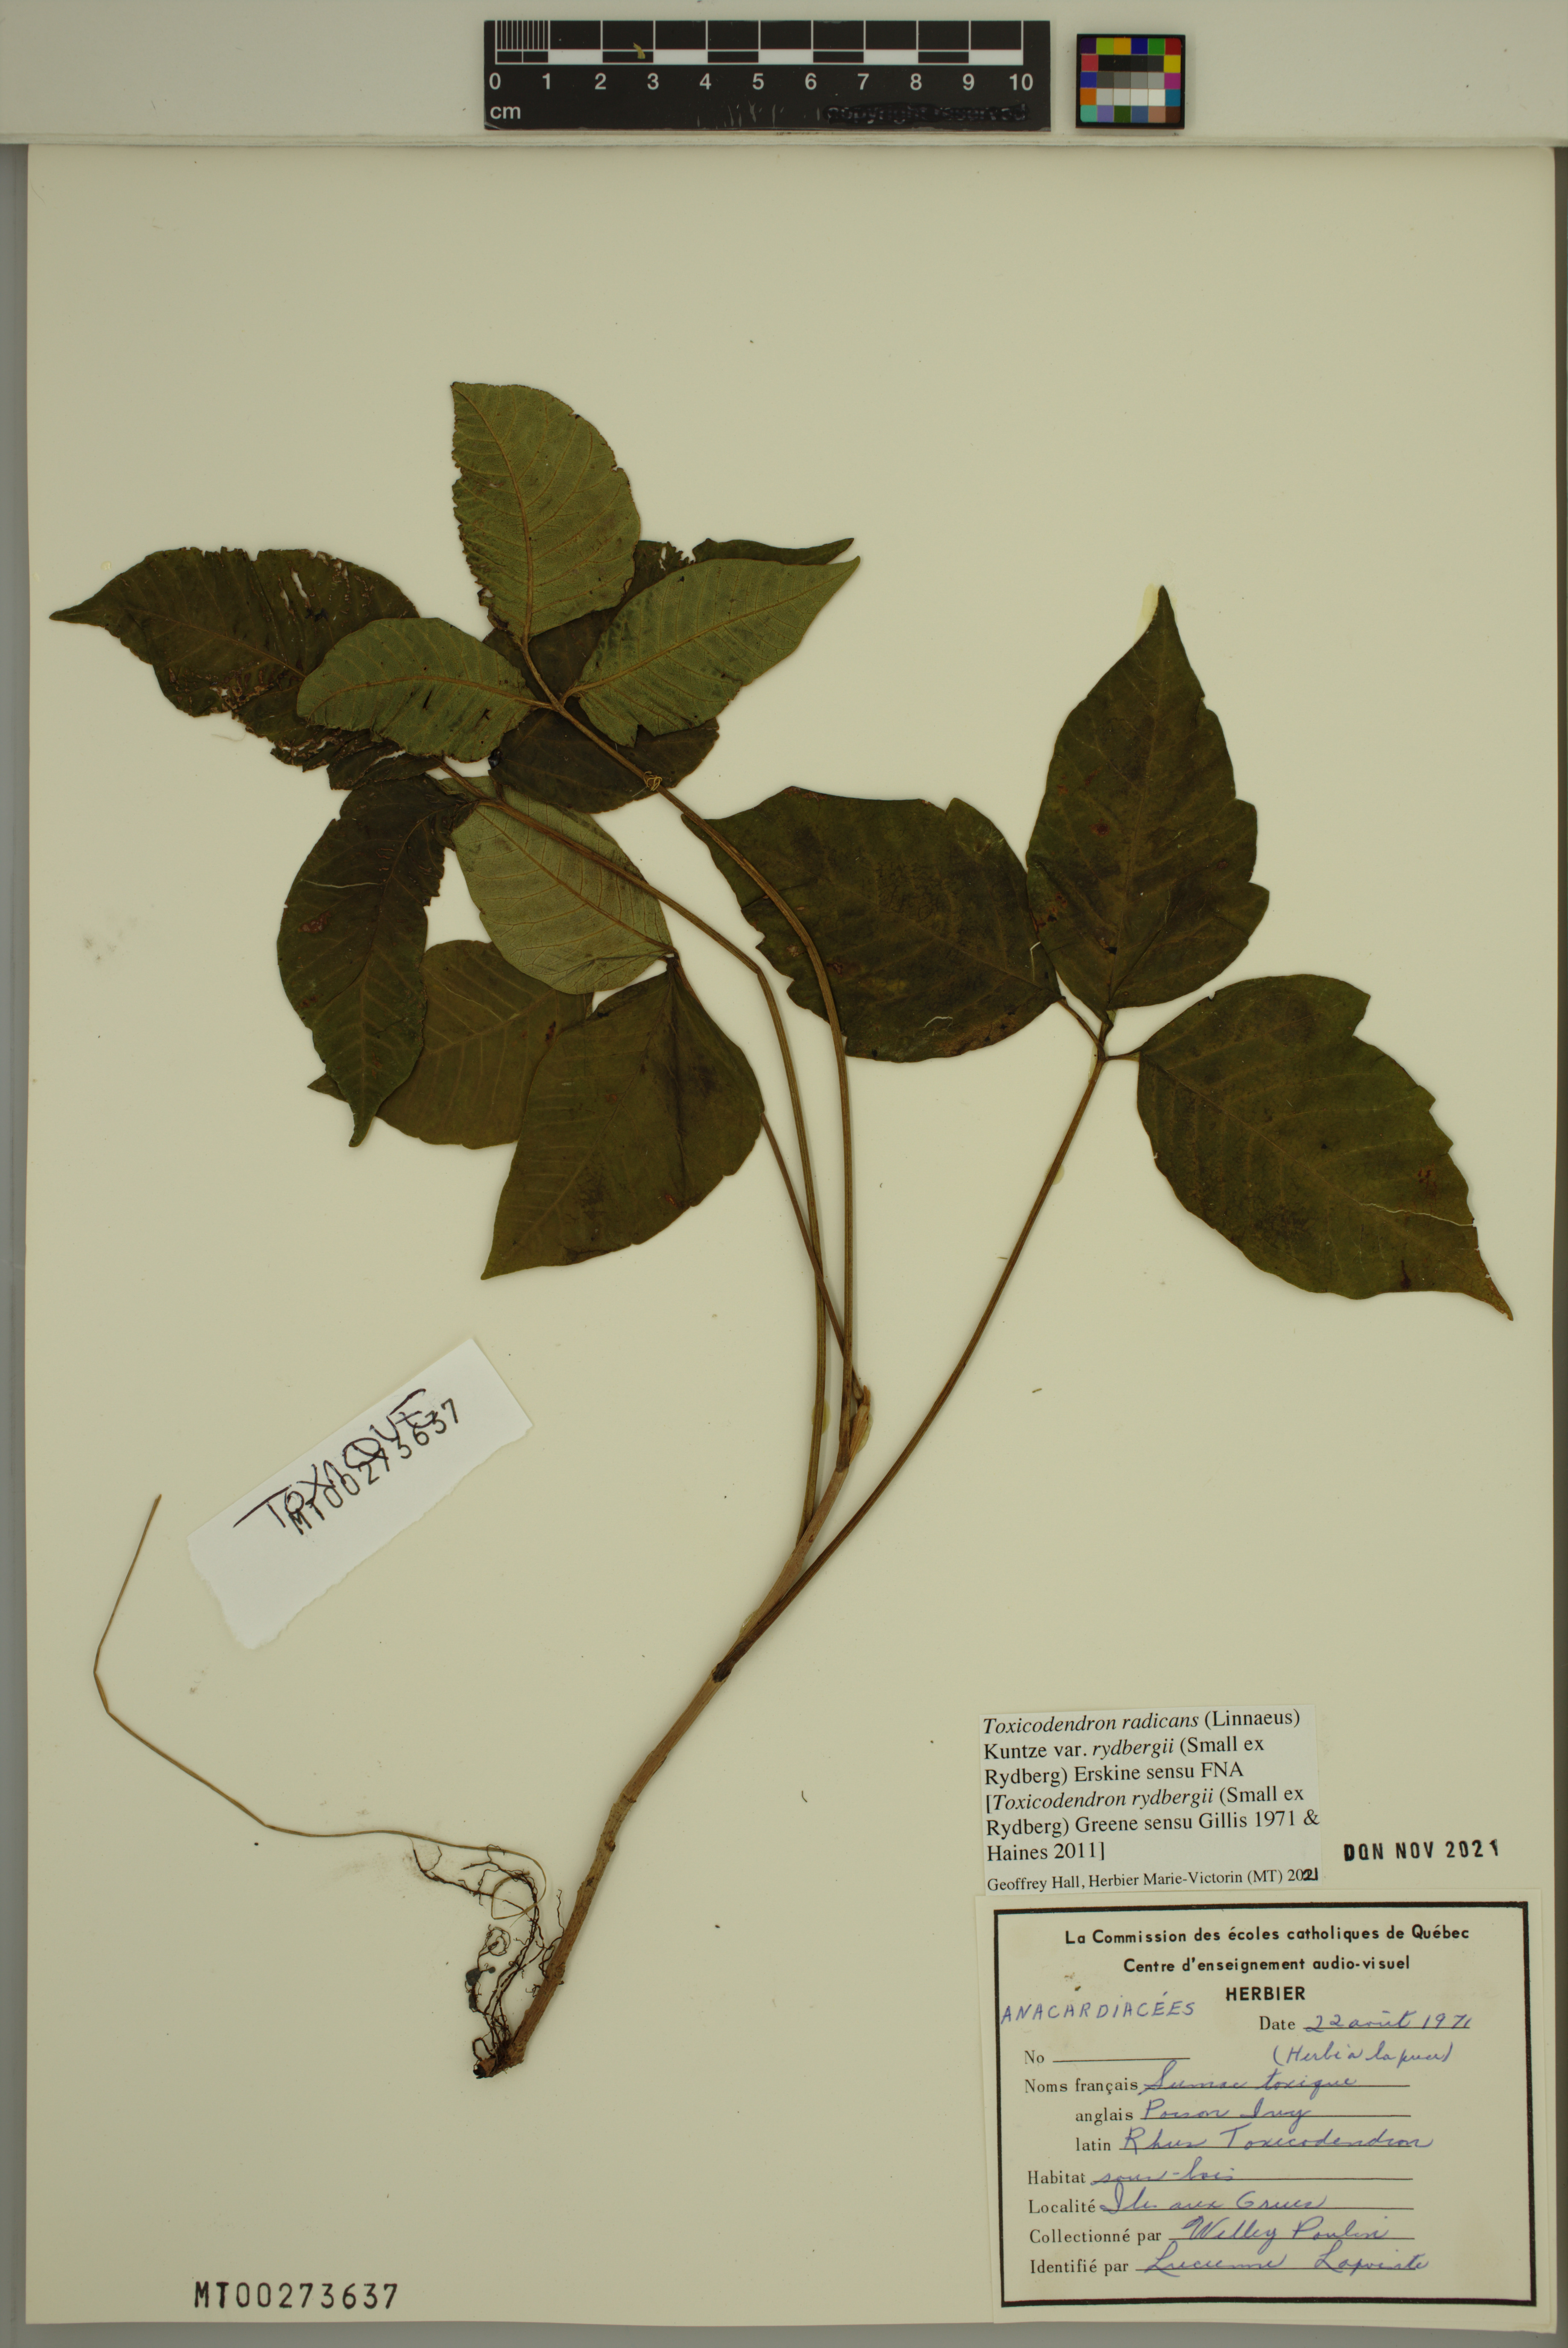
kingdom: Plantae
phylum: Tracheophyta
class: Magnoliopsida
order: Sapindales
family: Anacardiaceae
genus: Toxicodendron
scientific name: Toxicodendron rydbergii
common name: Rydberg's poison-ivy
